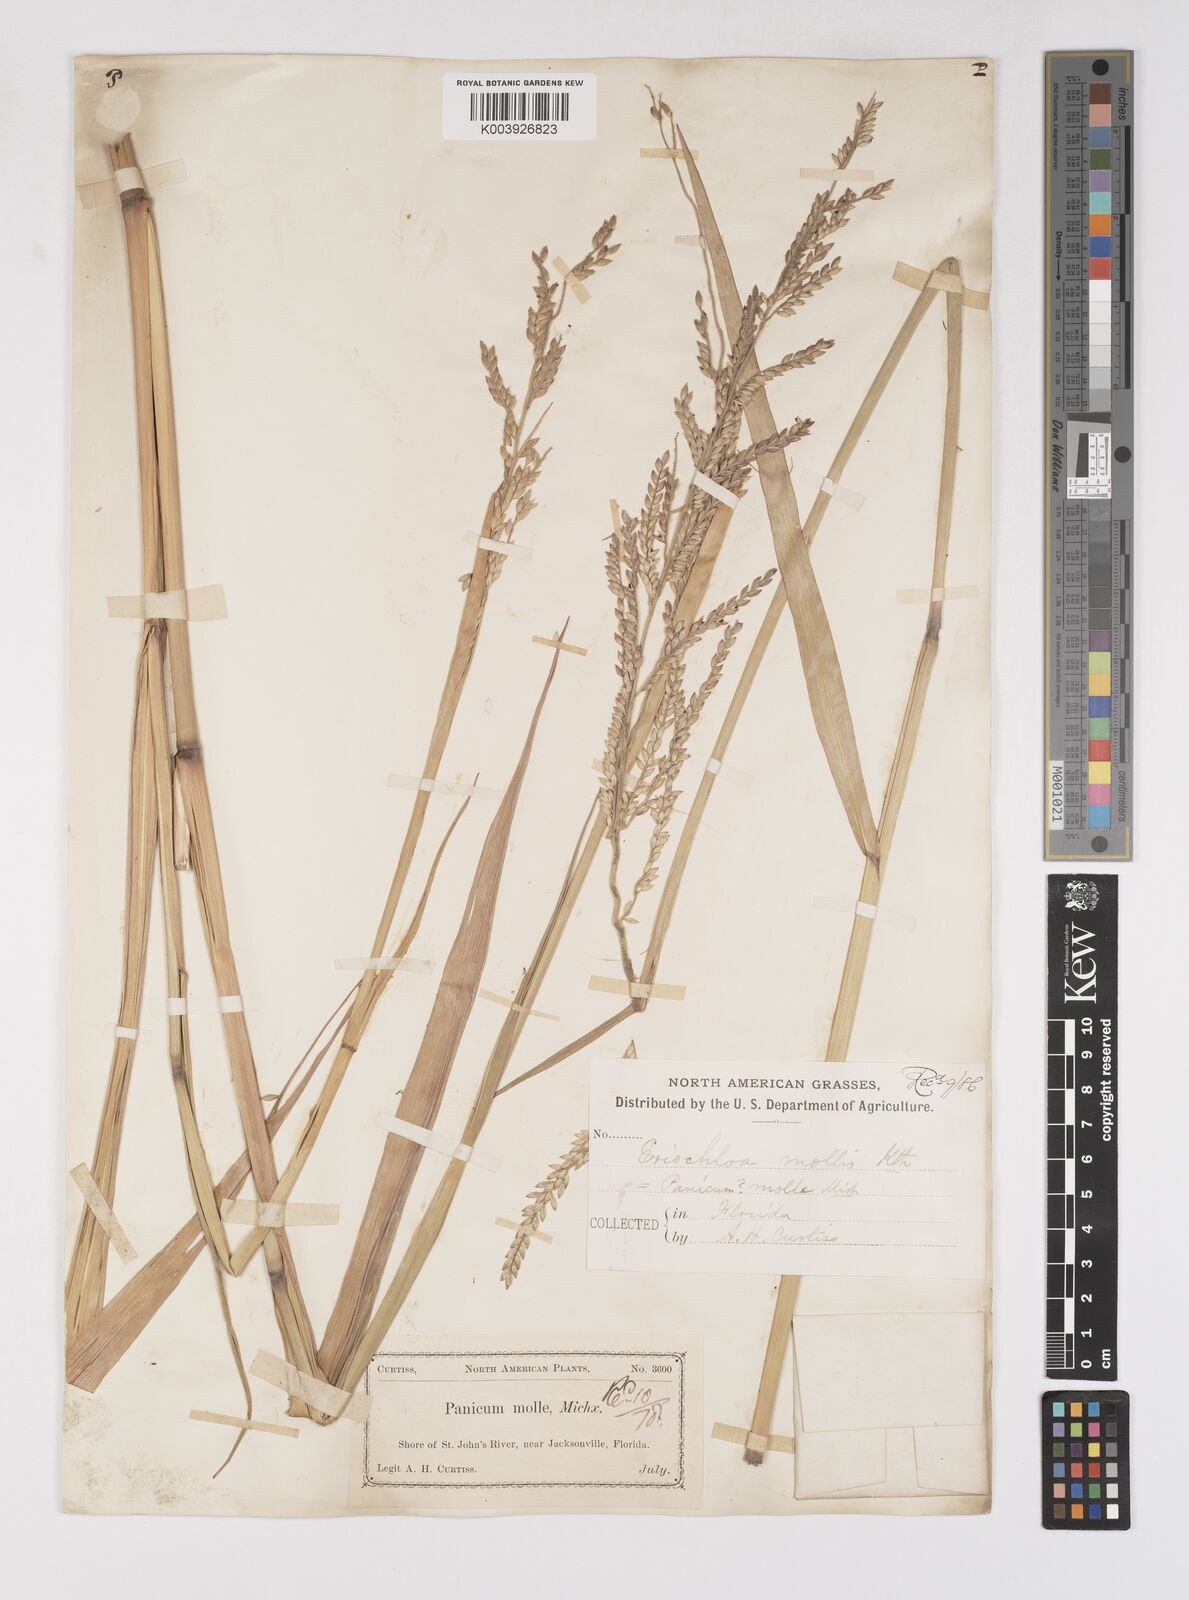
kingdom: Plantae
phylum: Tracheophyta
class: Liliopsida
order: Poales
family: Poaceae
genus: Eriochloa
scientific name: Eriochloa michauxii
